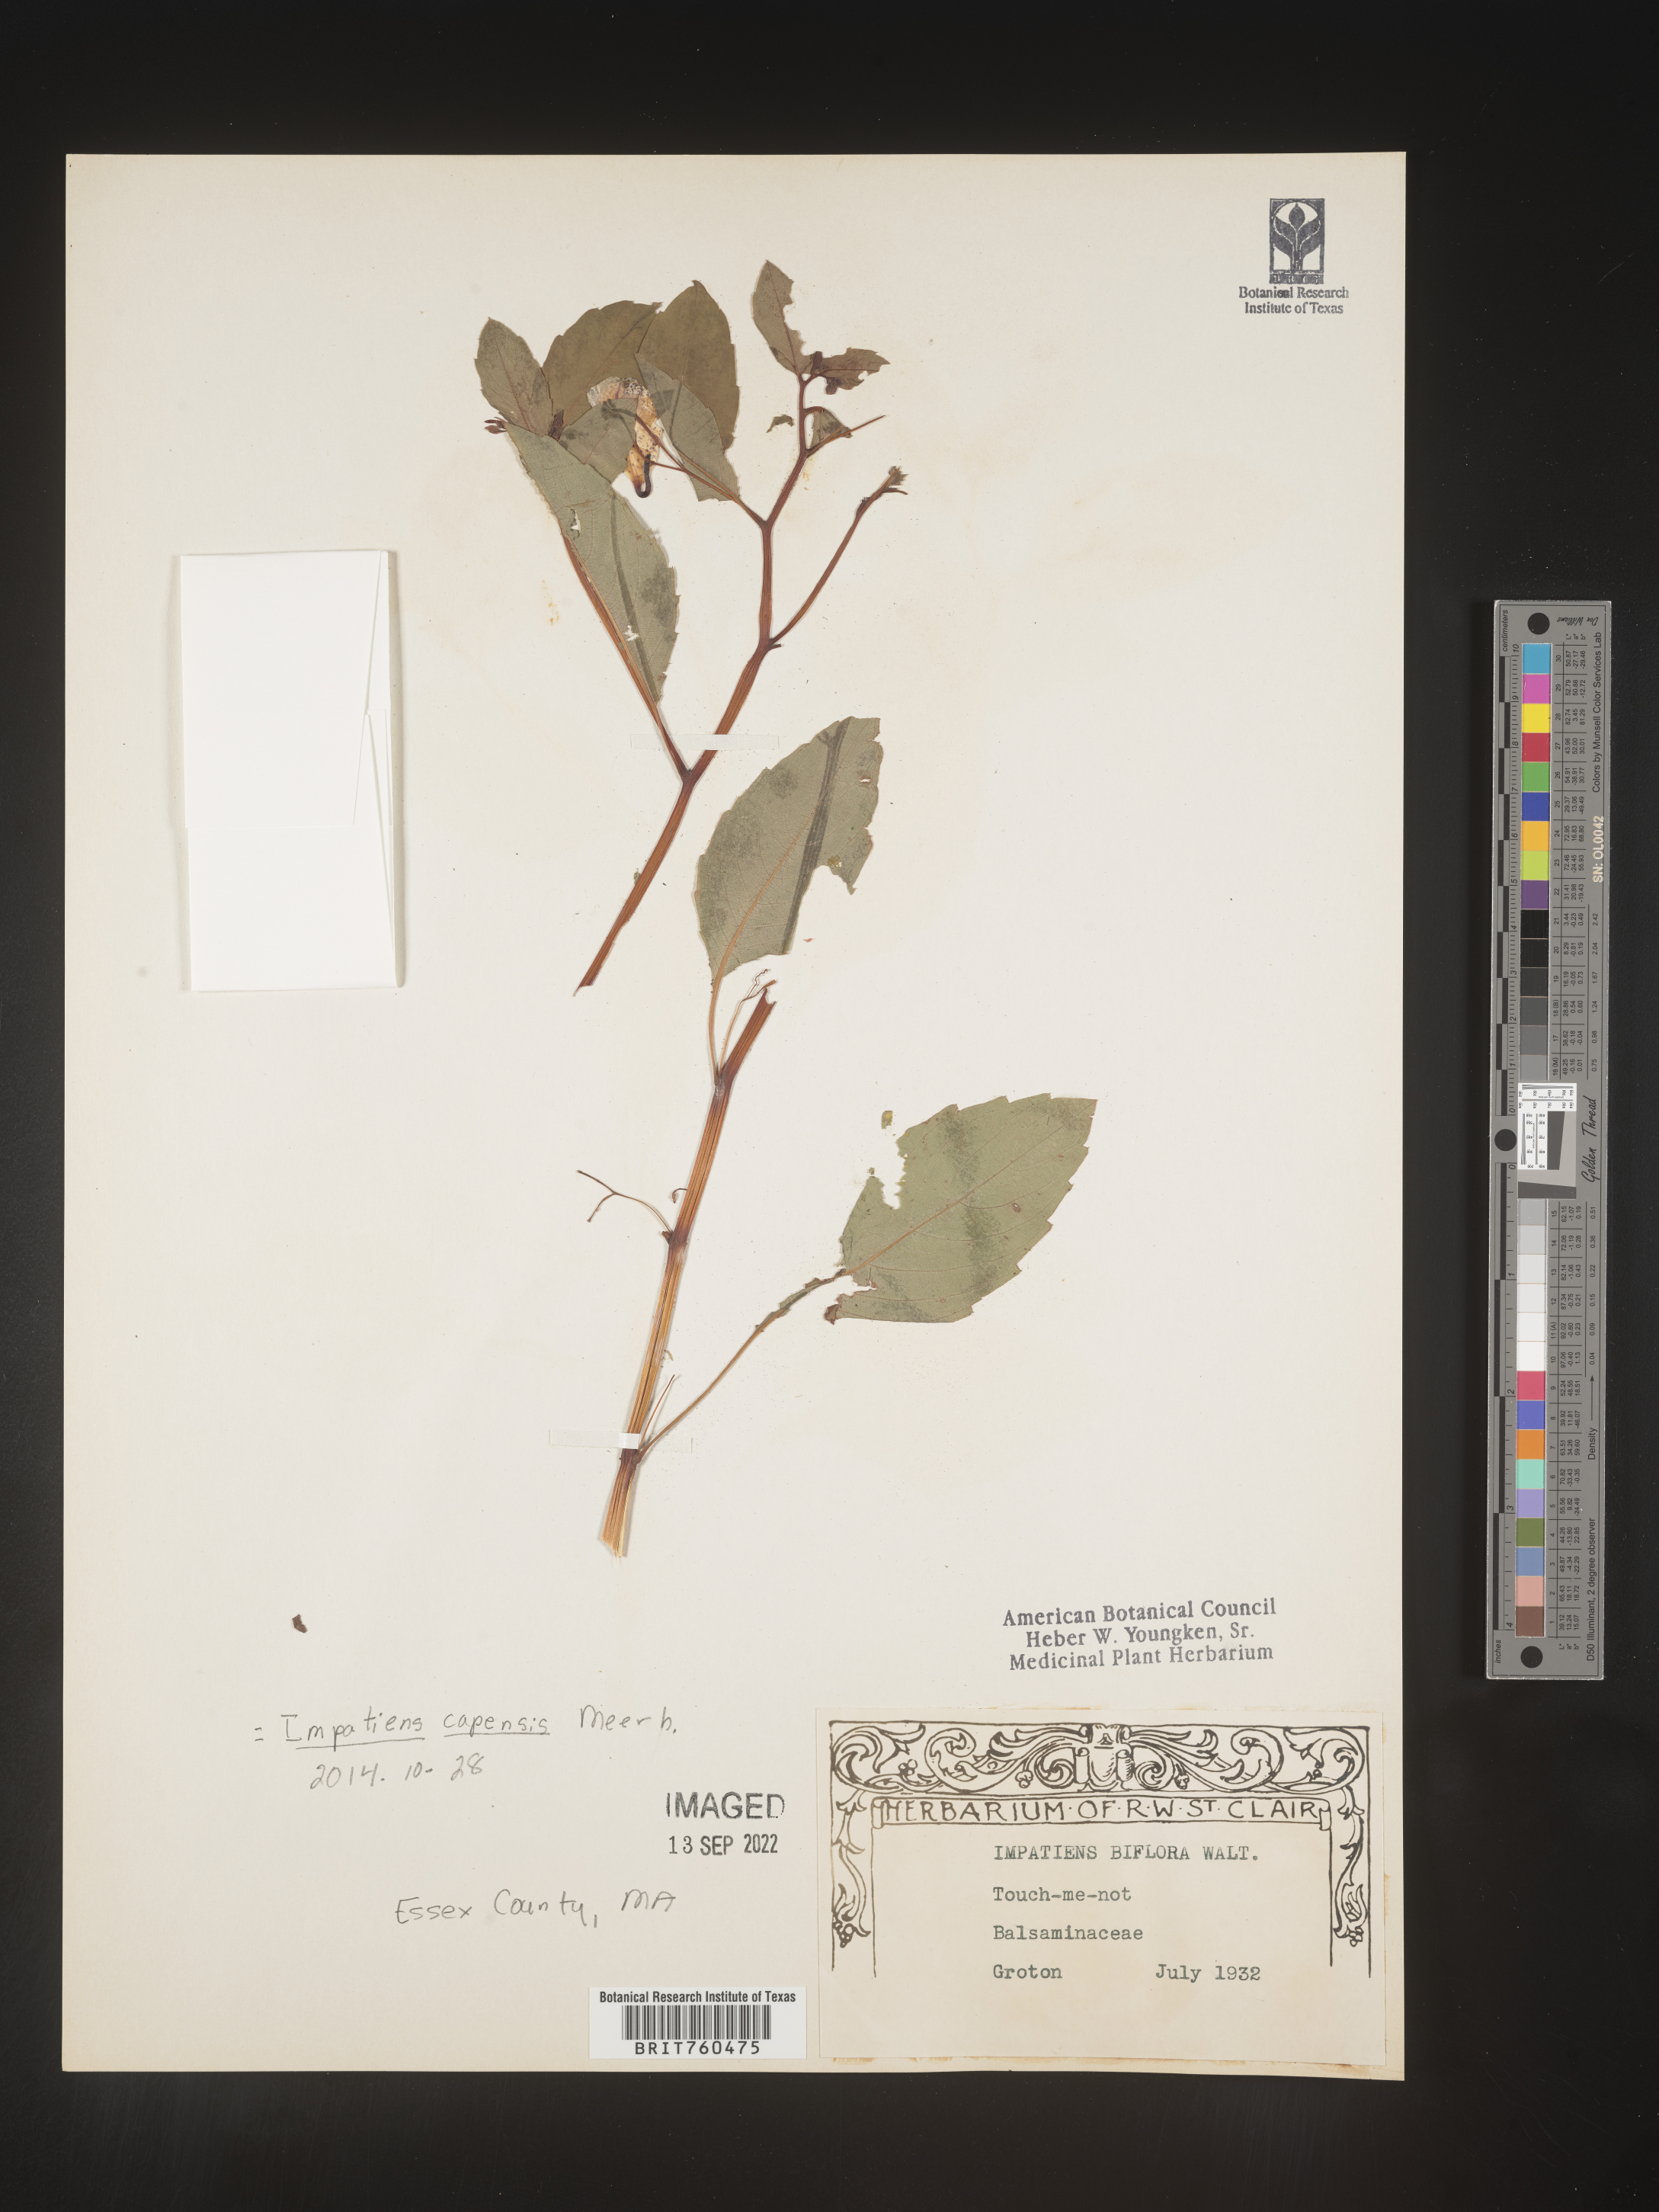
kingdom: Plantae
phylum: Tracheophyta
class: Magnoliopsida
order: Ericales
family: Balsaminaceae
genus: Impatiens
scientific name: Impatiens capensis
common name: Orange balsam
